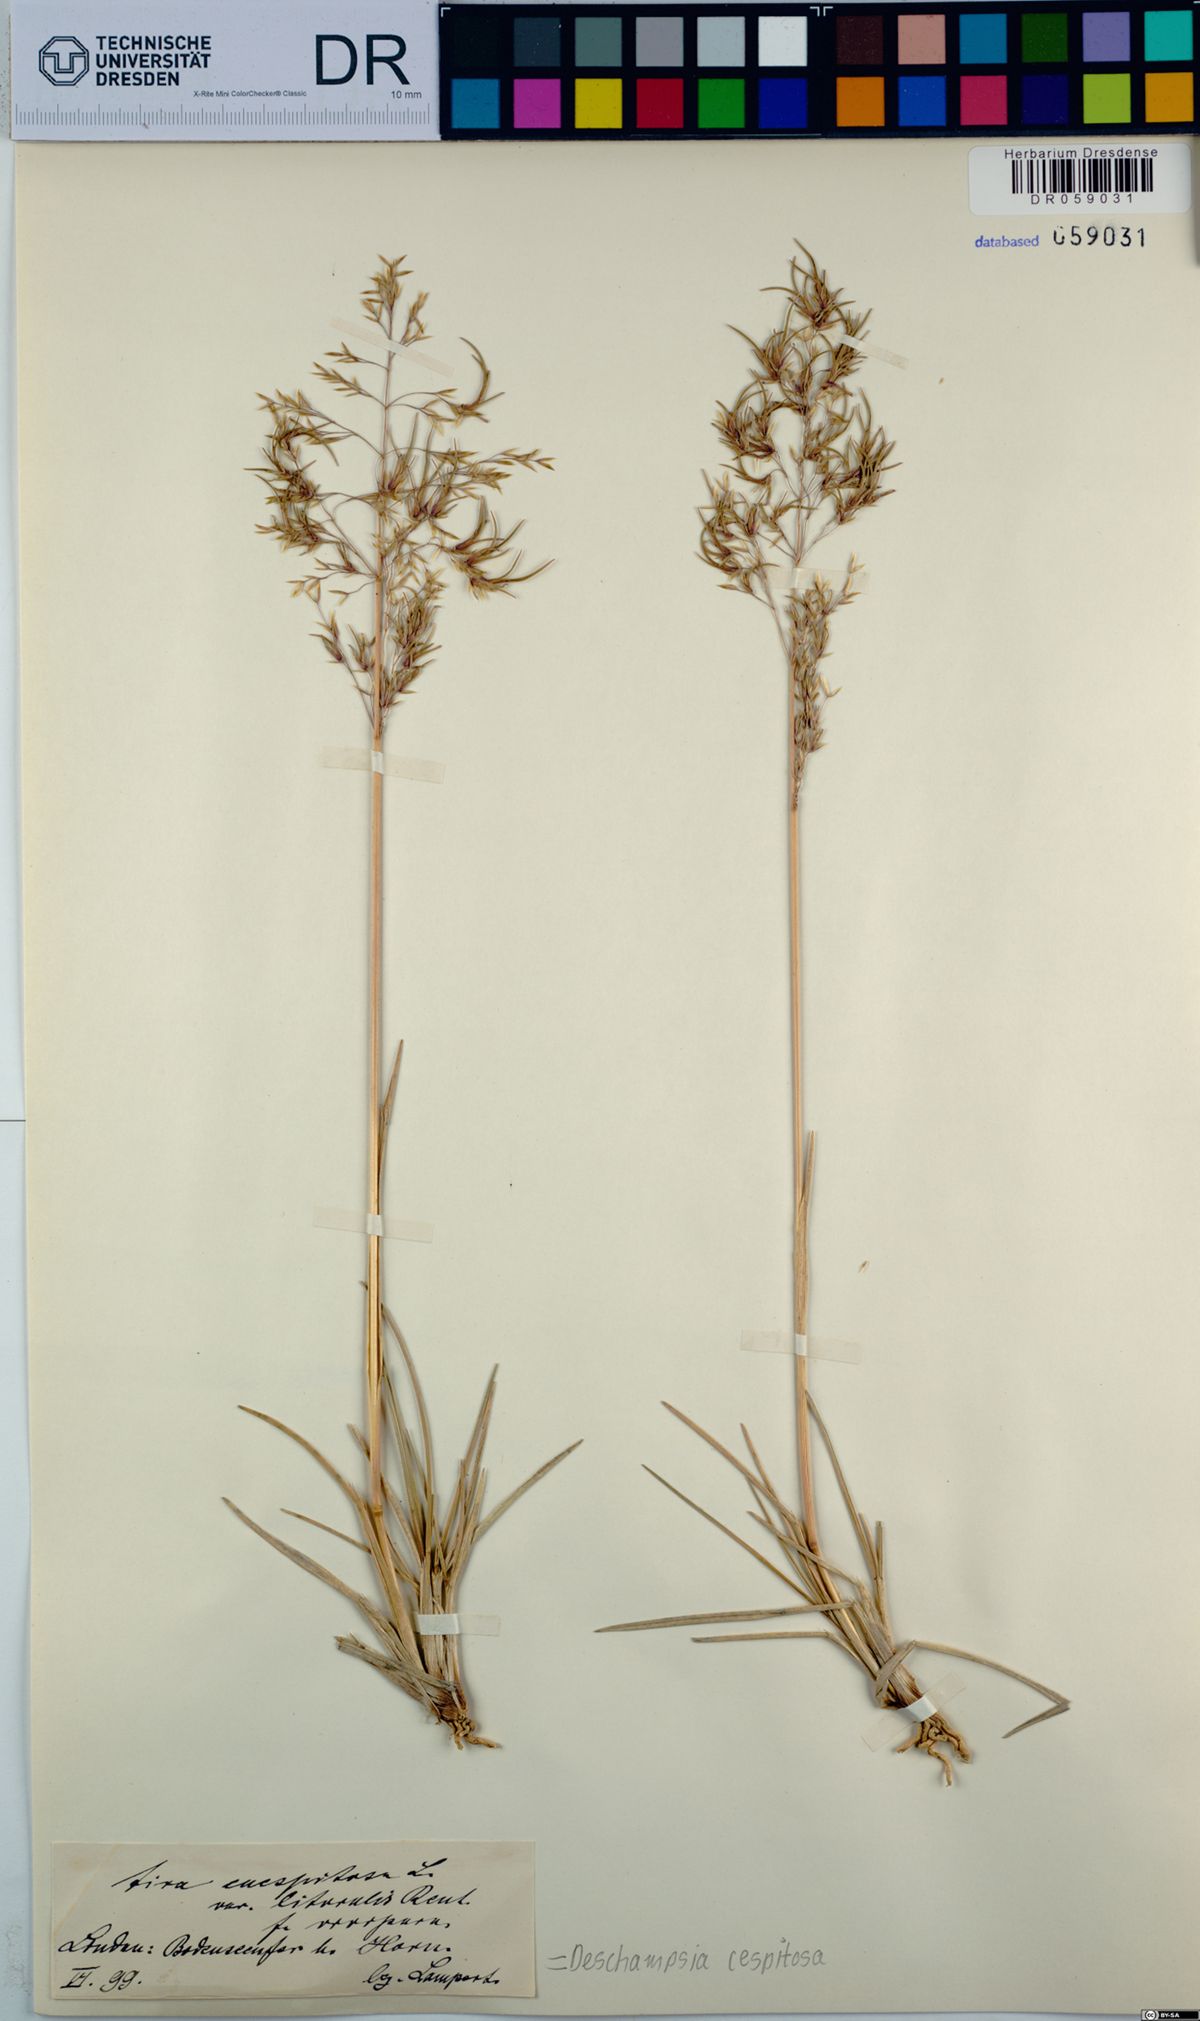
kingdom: Plantae
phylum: Tracheophyta
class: Liliopsida
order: Poales
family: Poaceae
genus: Deschampsia
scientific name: Deschampsia cespitosa
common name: Tufted hair-grass
